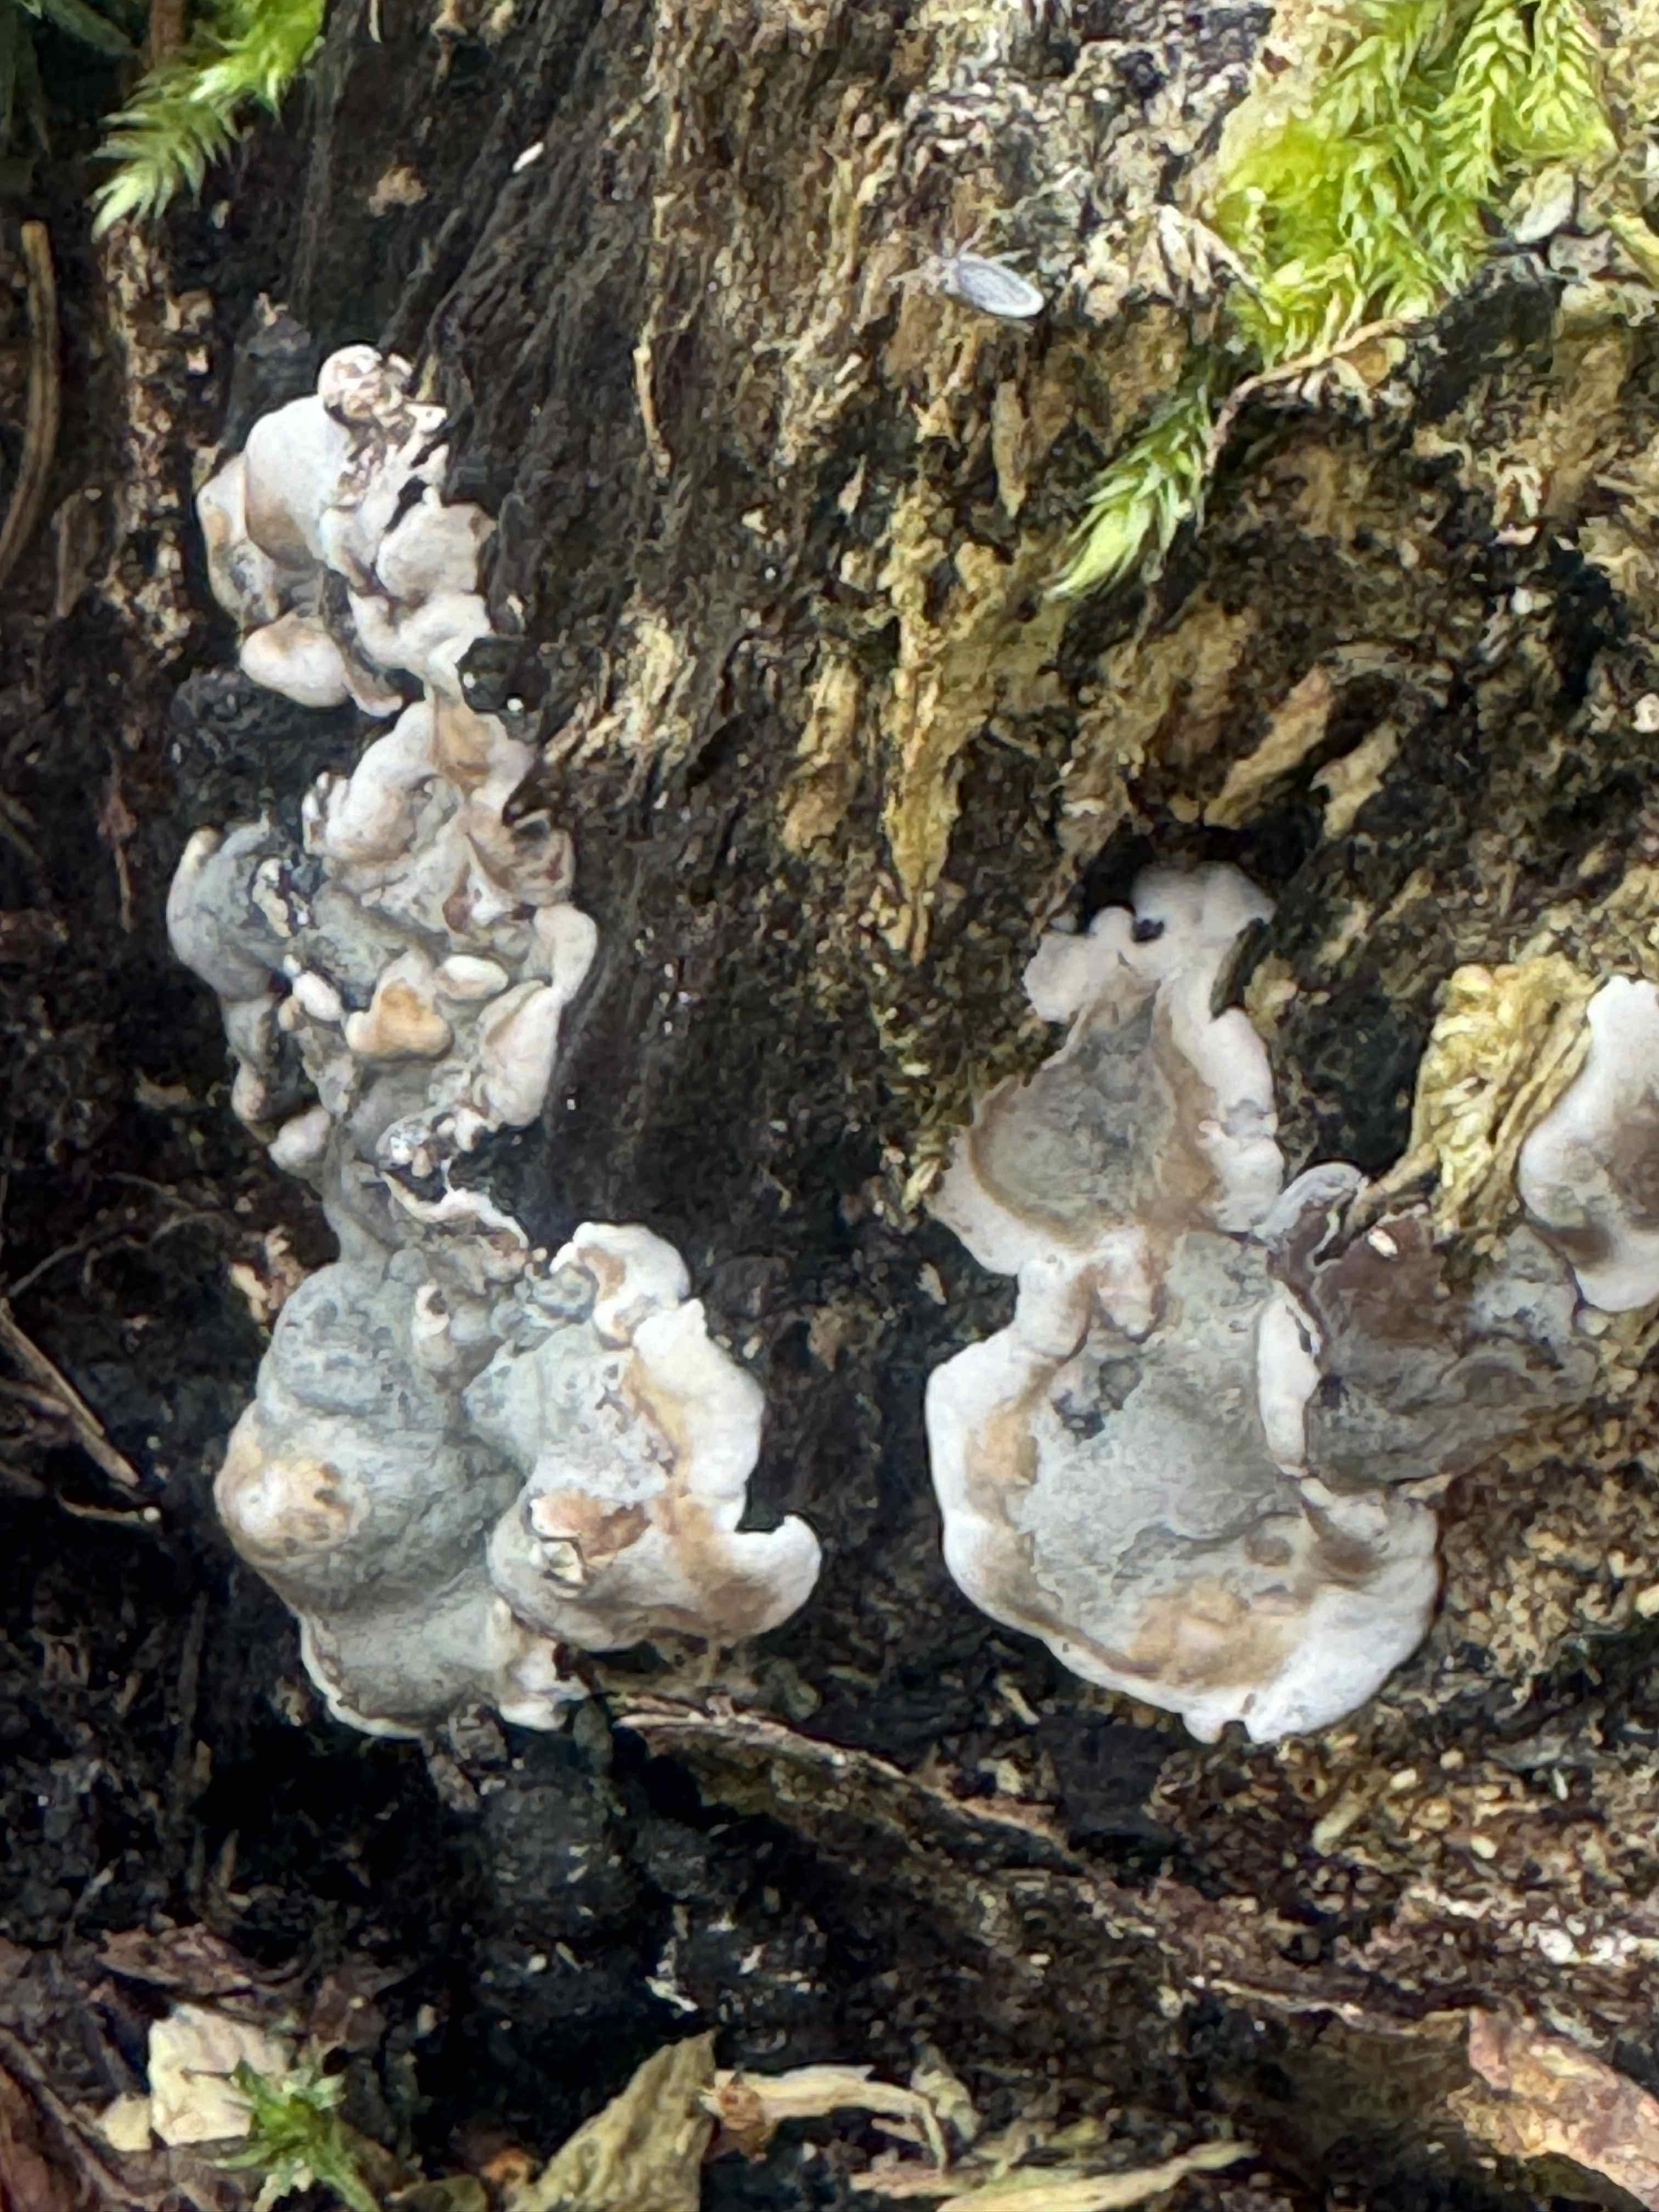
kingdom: Fungi
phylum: Ascomycota
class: Sordariomycetes
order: Xylariales
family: Xylariaceae
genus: Kretzschmaria
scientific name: Kretzschmaria deusta
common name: stor kulsvamp
